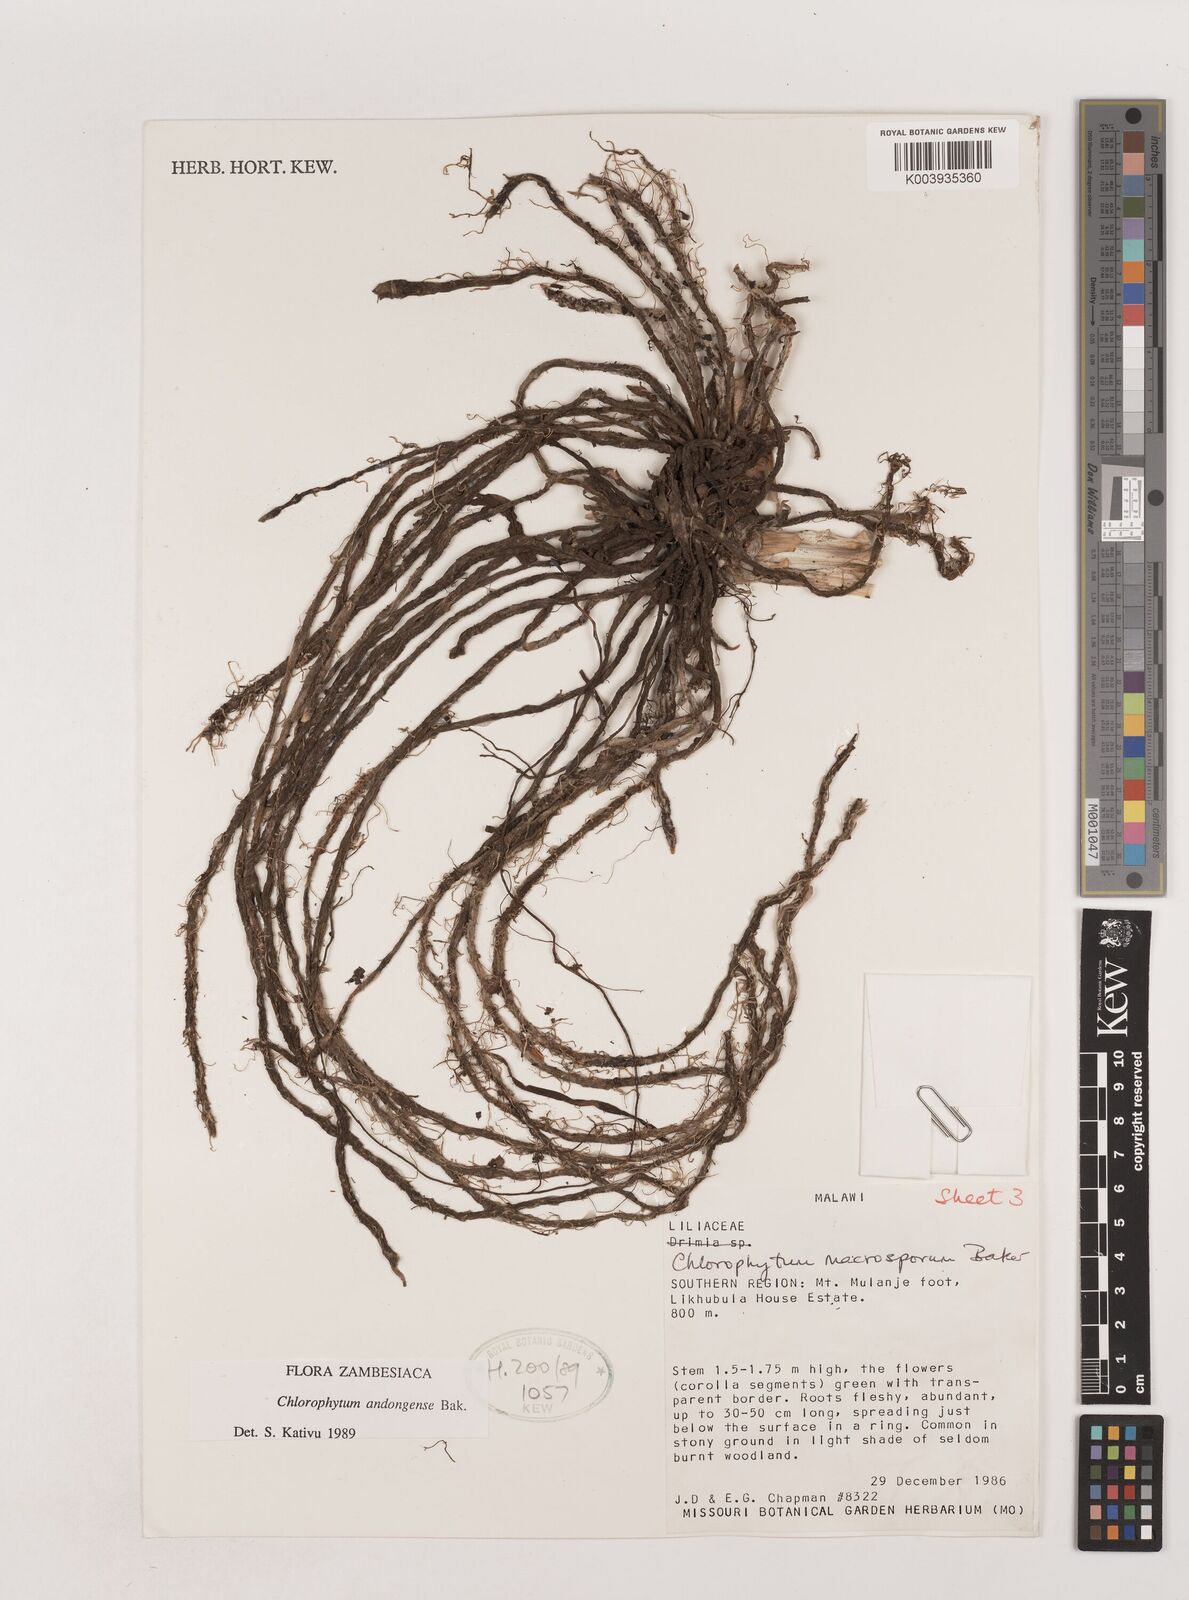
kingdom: Plantae
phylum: Tracheophyta
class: Liliopsida
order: Asparagales
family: Asparagaceae
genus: Chlorophytum
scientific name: Chlorophytum macrosporum
